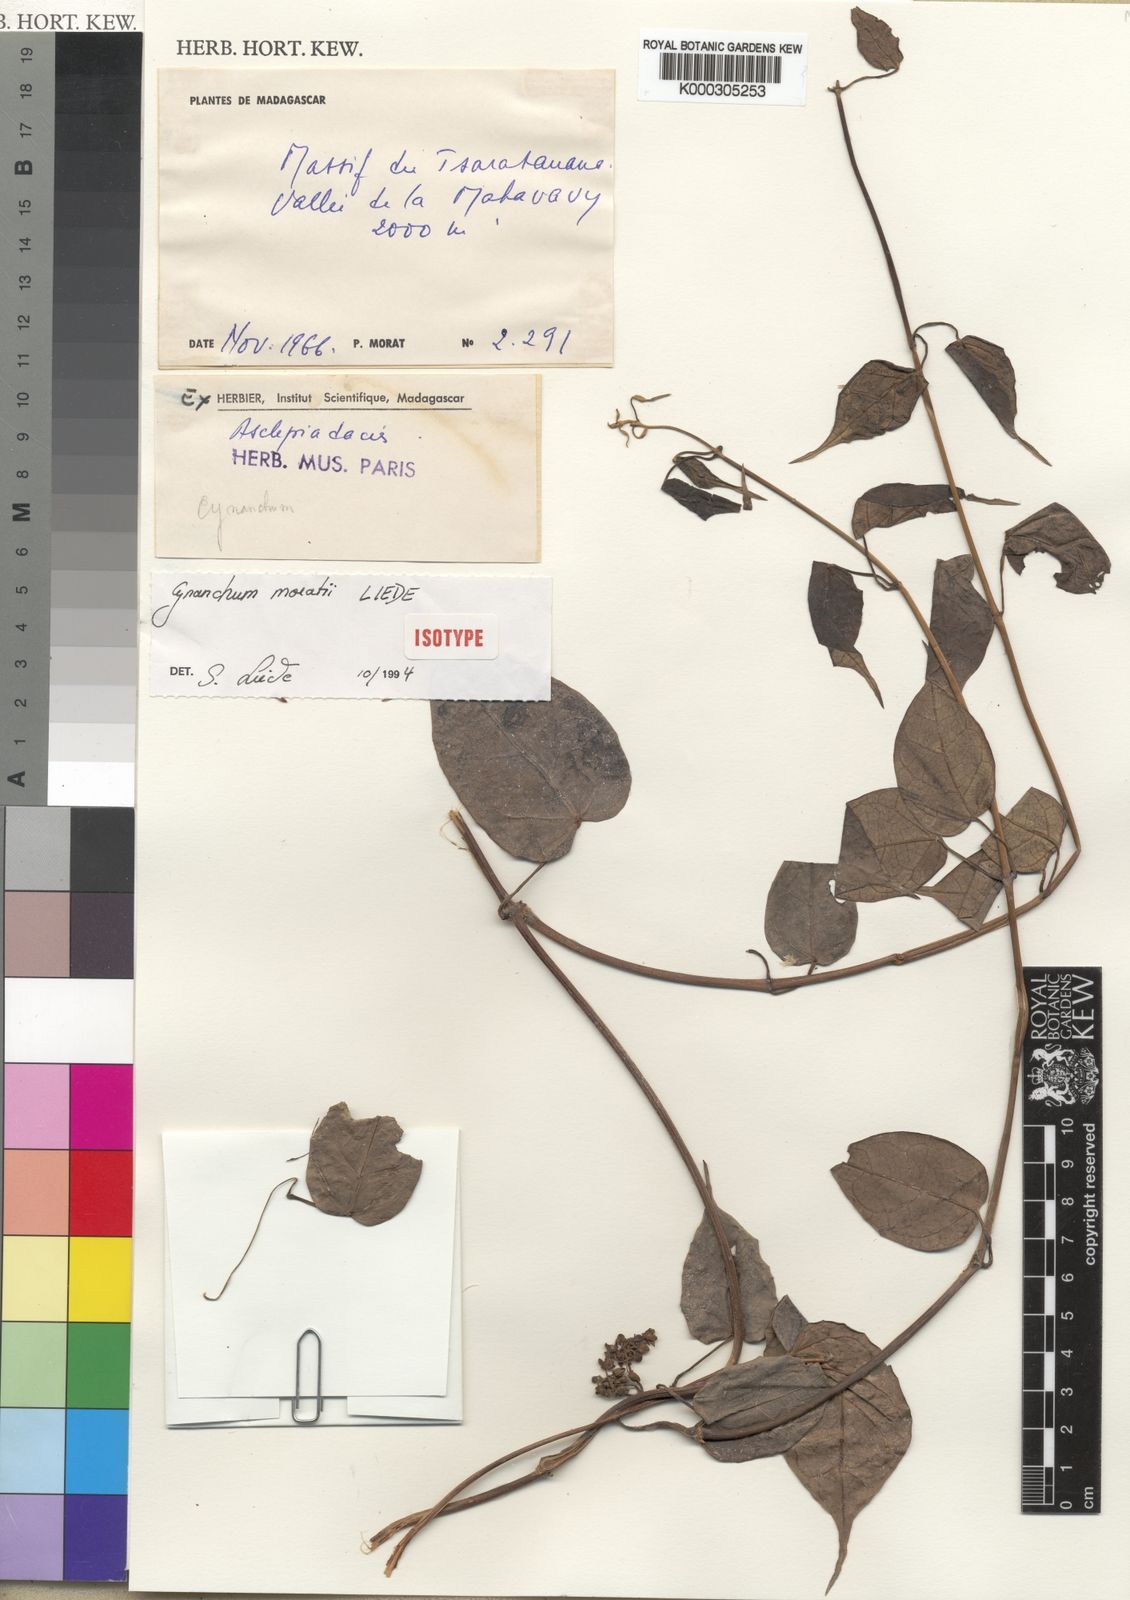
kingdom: Plantae
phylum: Tracheophyta
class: Magnoliopsida
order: Gentianales
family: Apocynaceae
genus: Cynanchum
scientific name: Cynanchum moratii
